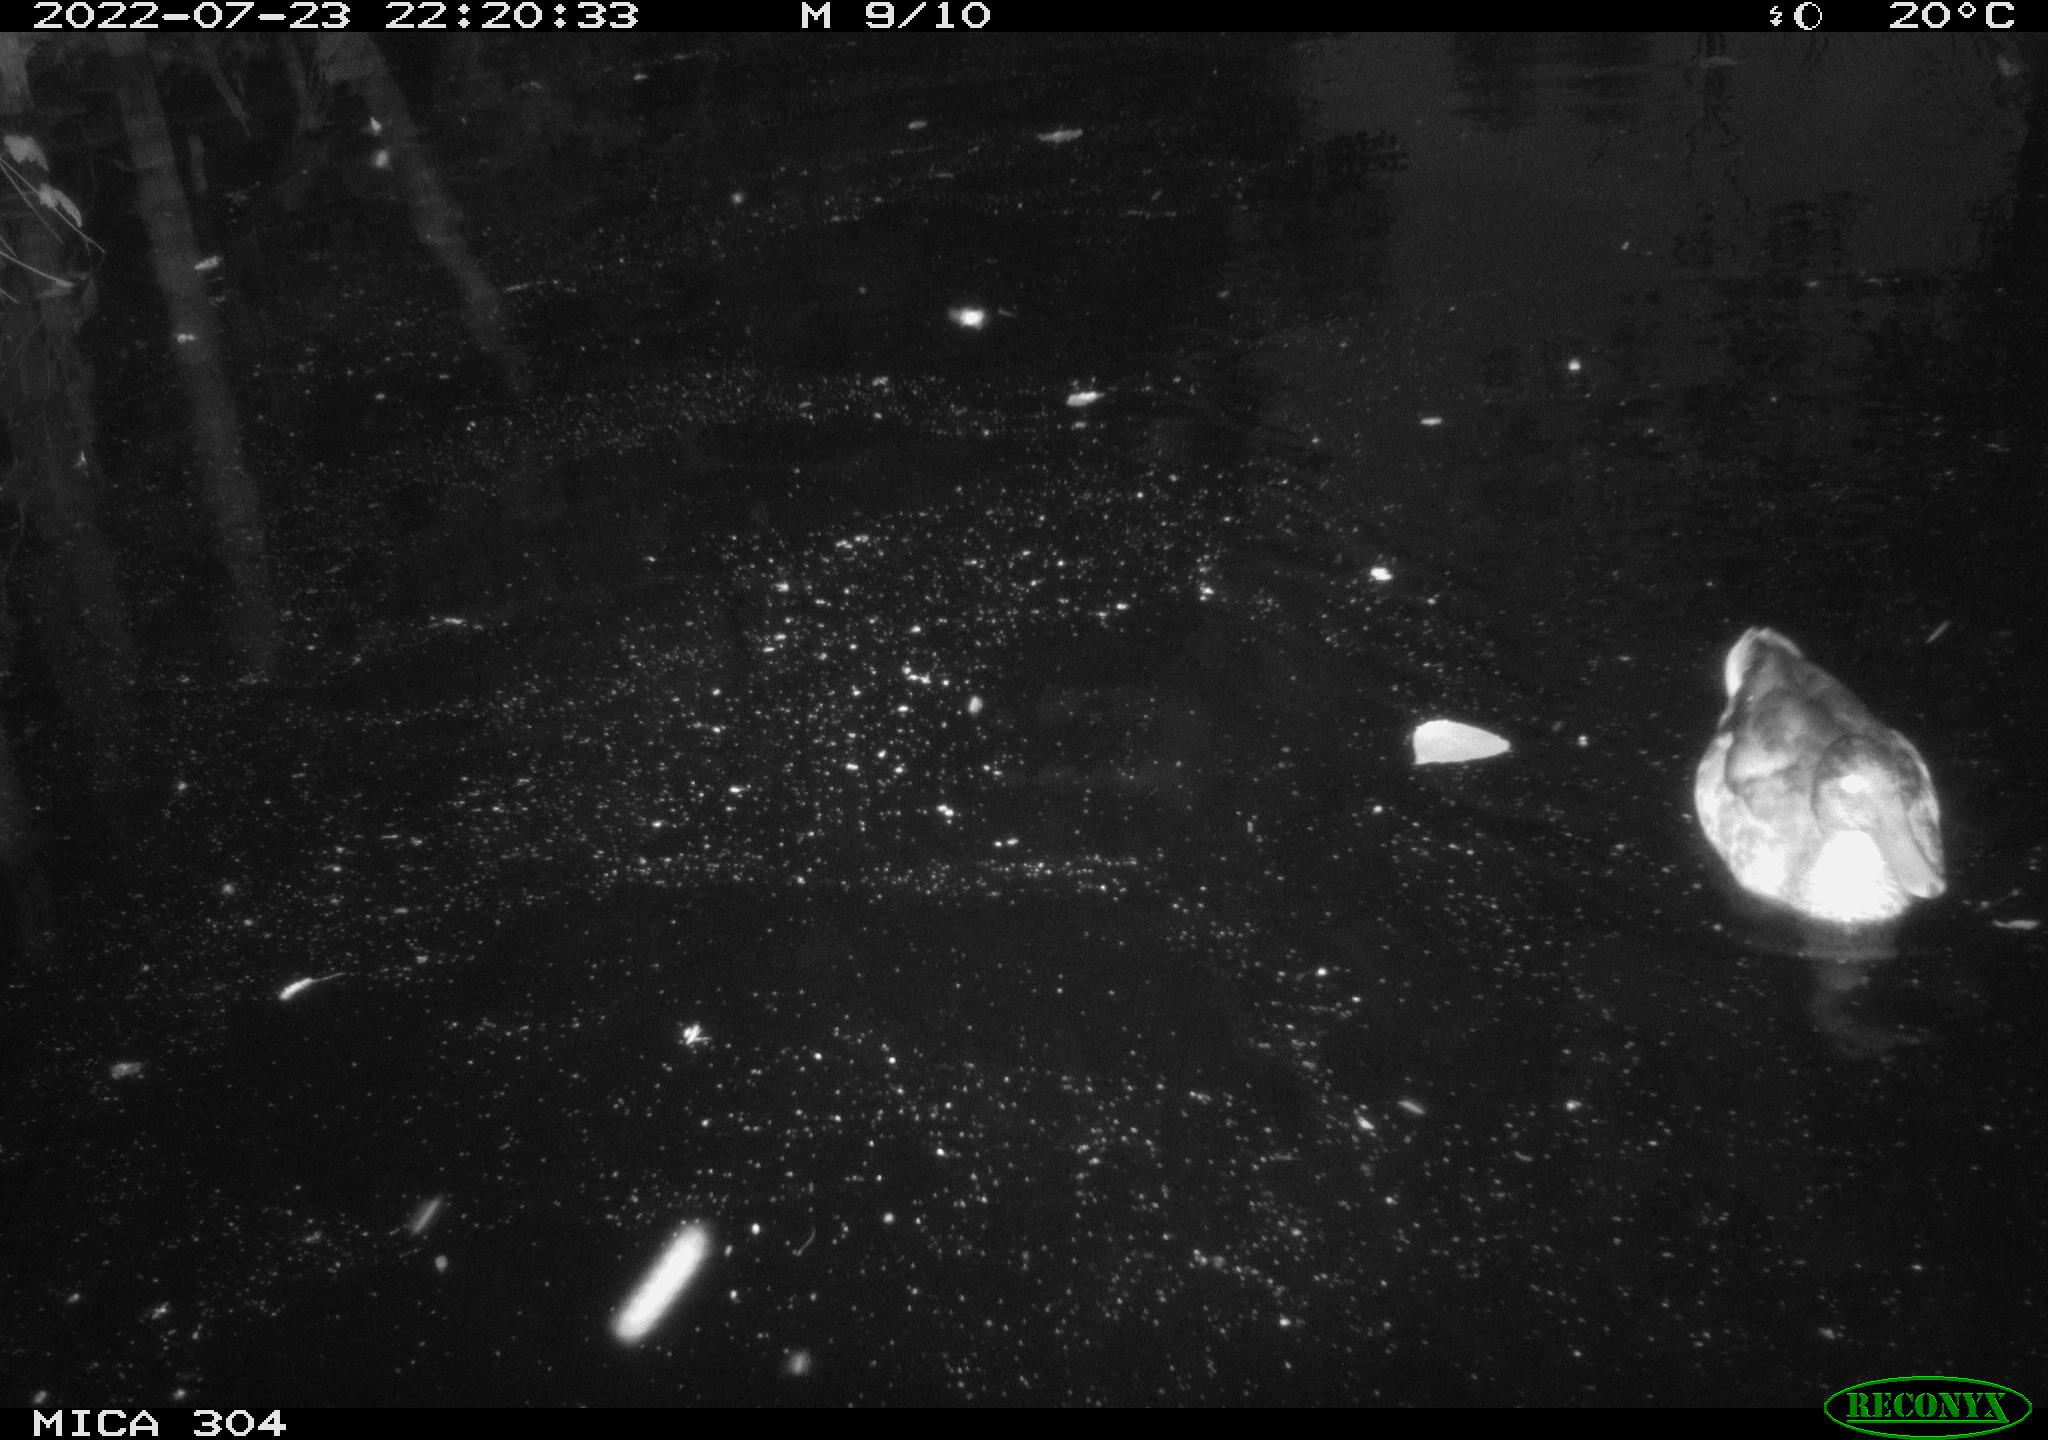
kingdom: Animalia
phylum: Chordata
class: Aves
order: Anseriformes
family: Anatidae
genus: Anas
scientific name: Anas platyrhynchos
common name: Mallard
